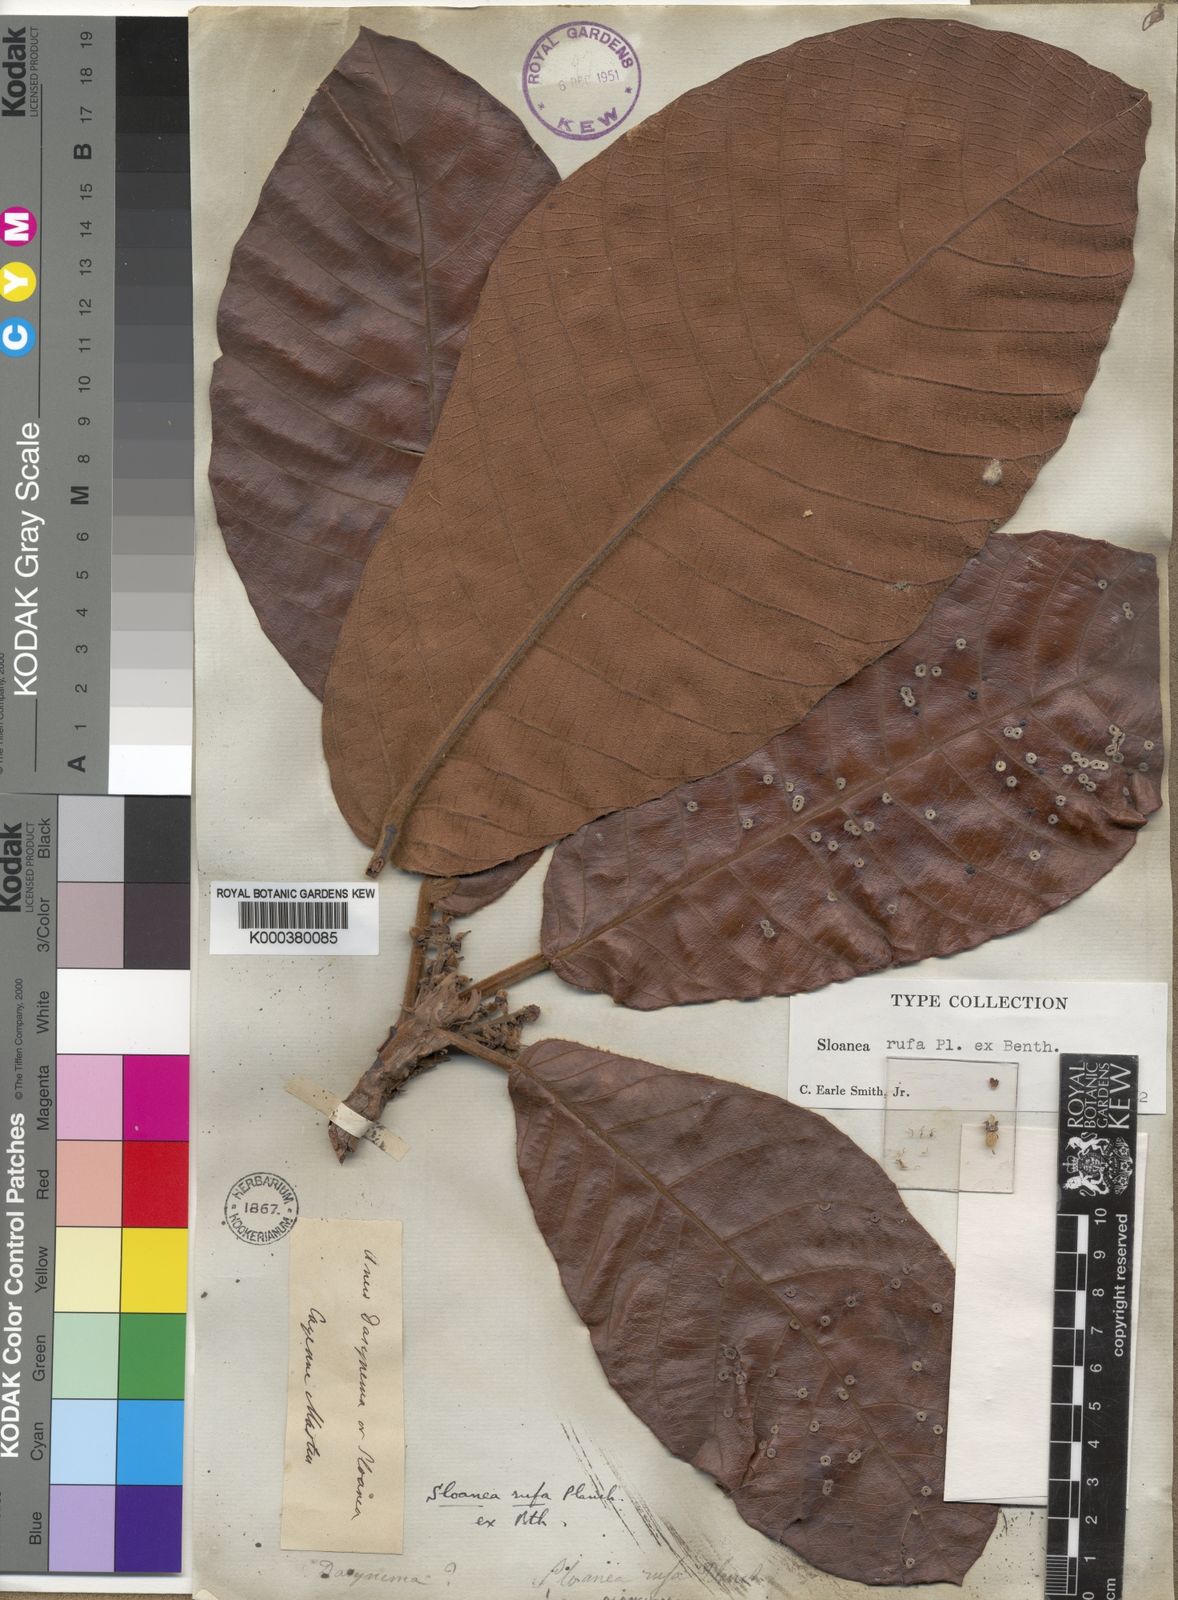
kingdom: Plantae
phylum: Tracheophyta
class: Magnoliopsida
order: Oxalidales
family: Elaeocarpaceae
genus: Sloanea
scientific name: Sloanea rufa
